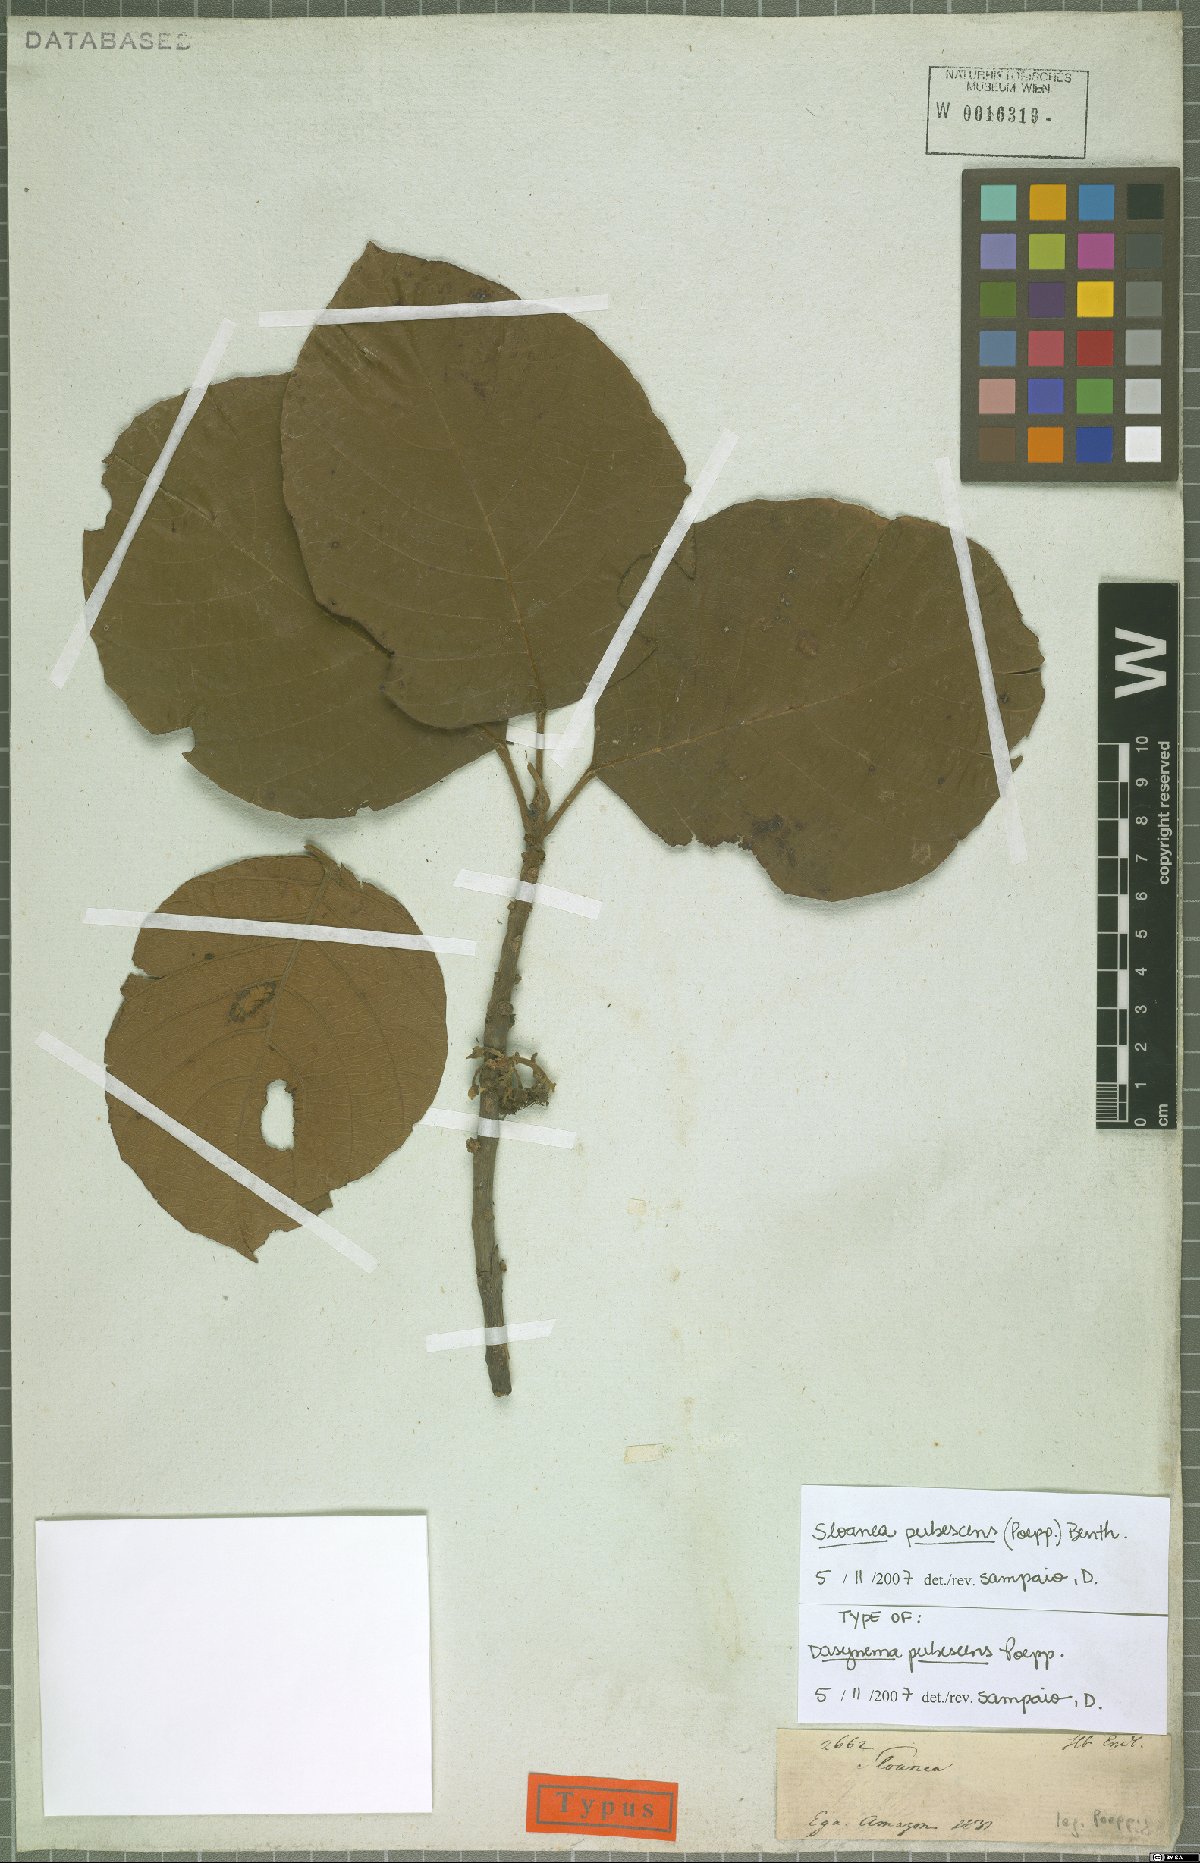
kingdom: Plantae
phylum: Tracheophyta
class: Magnoliopsida
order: Oxalidales
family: Elaeocarpaceae
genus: Sloanea
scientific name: Sloanea pubescens
